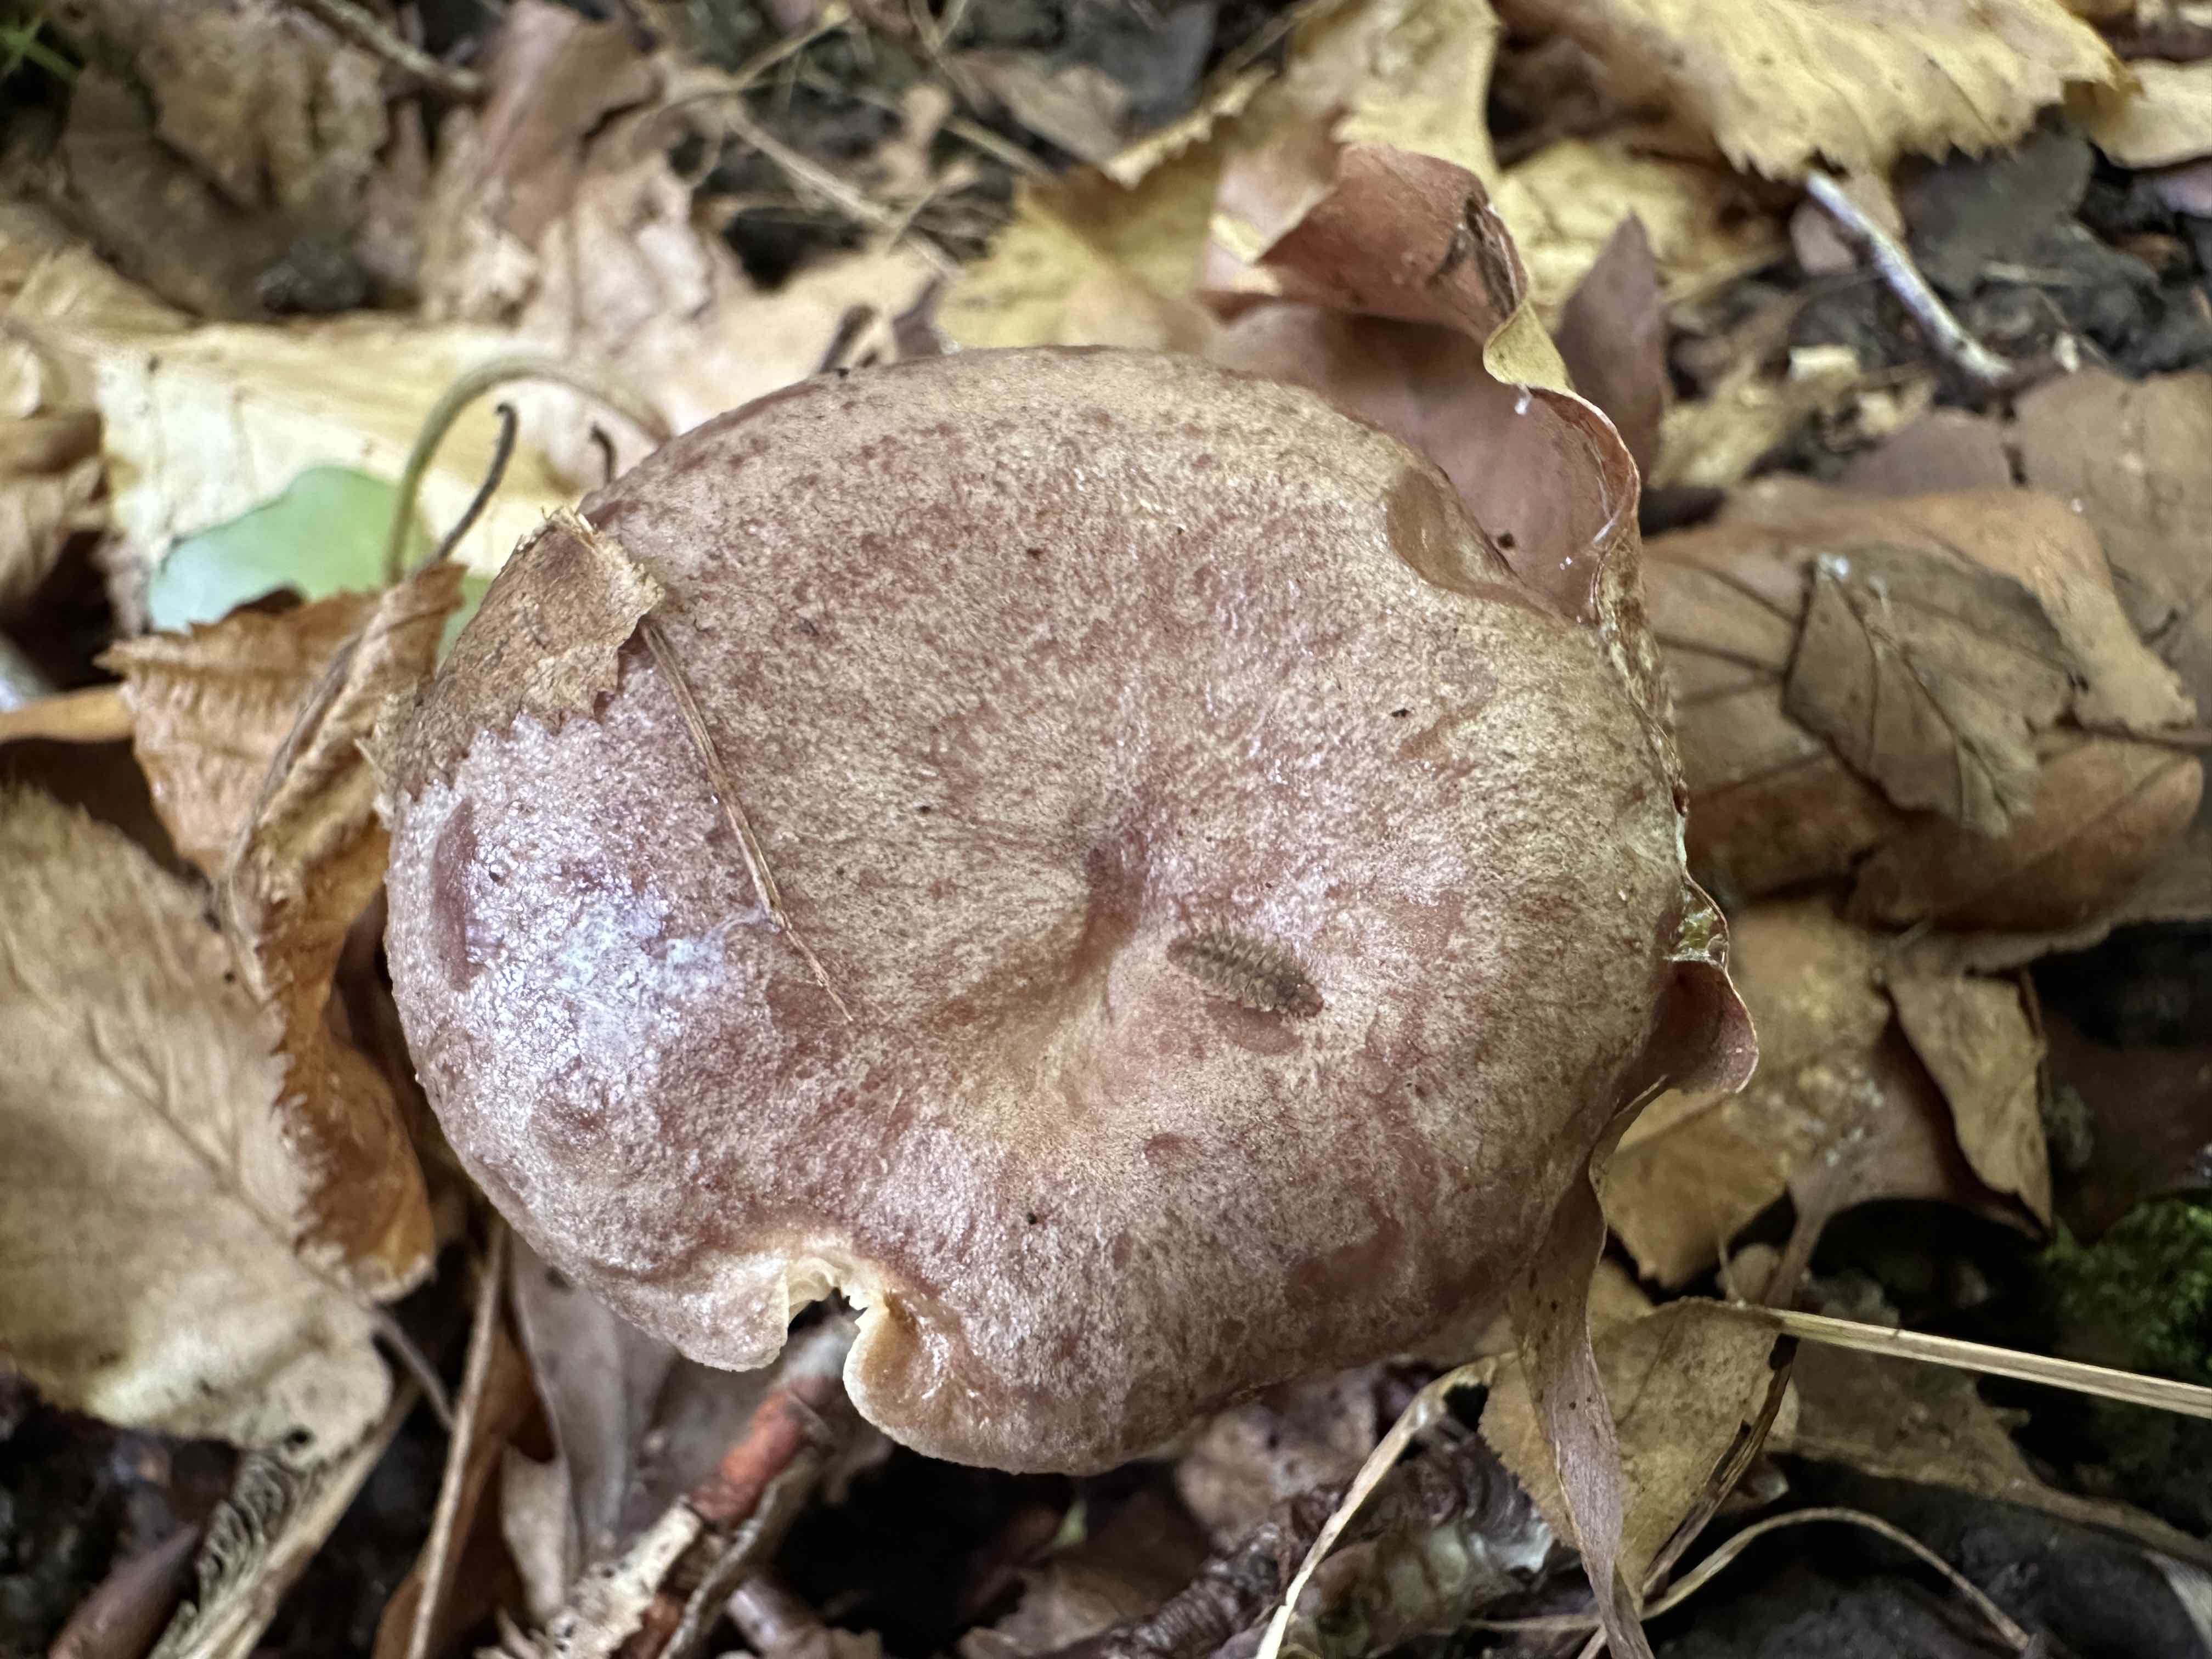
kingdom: Fungi
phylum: Basidiomycota
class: Agaricomycetes
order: Russulales
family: Russulaceae
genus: Lactarius
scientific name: Lactarius blennius
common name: dråbeplettet mælkehat
